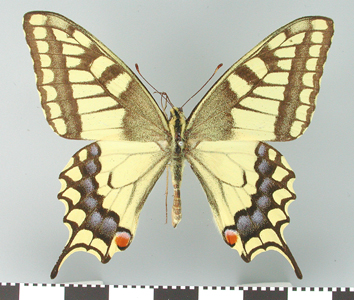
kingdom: Animalia
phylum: Arthropoda
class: Insecta
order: Lepidoptera
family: Papilionidae
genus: Papilio
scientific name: Papilio machaon
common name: Swallowtail
